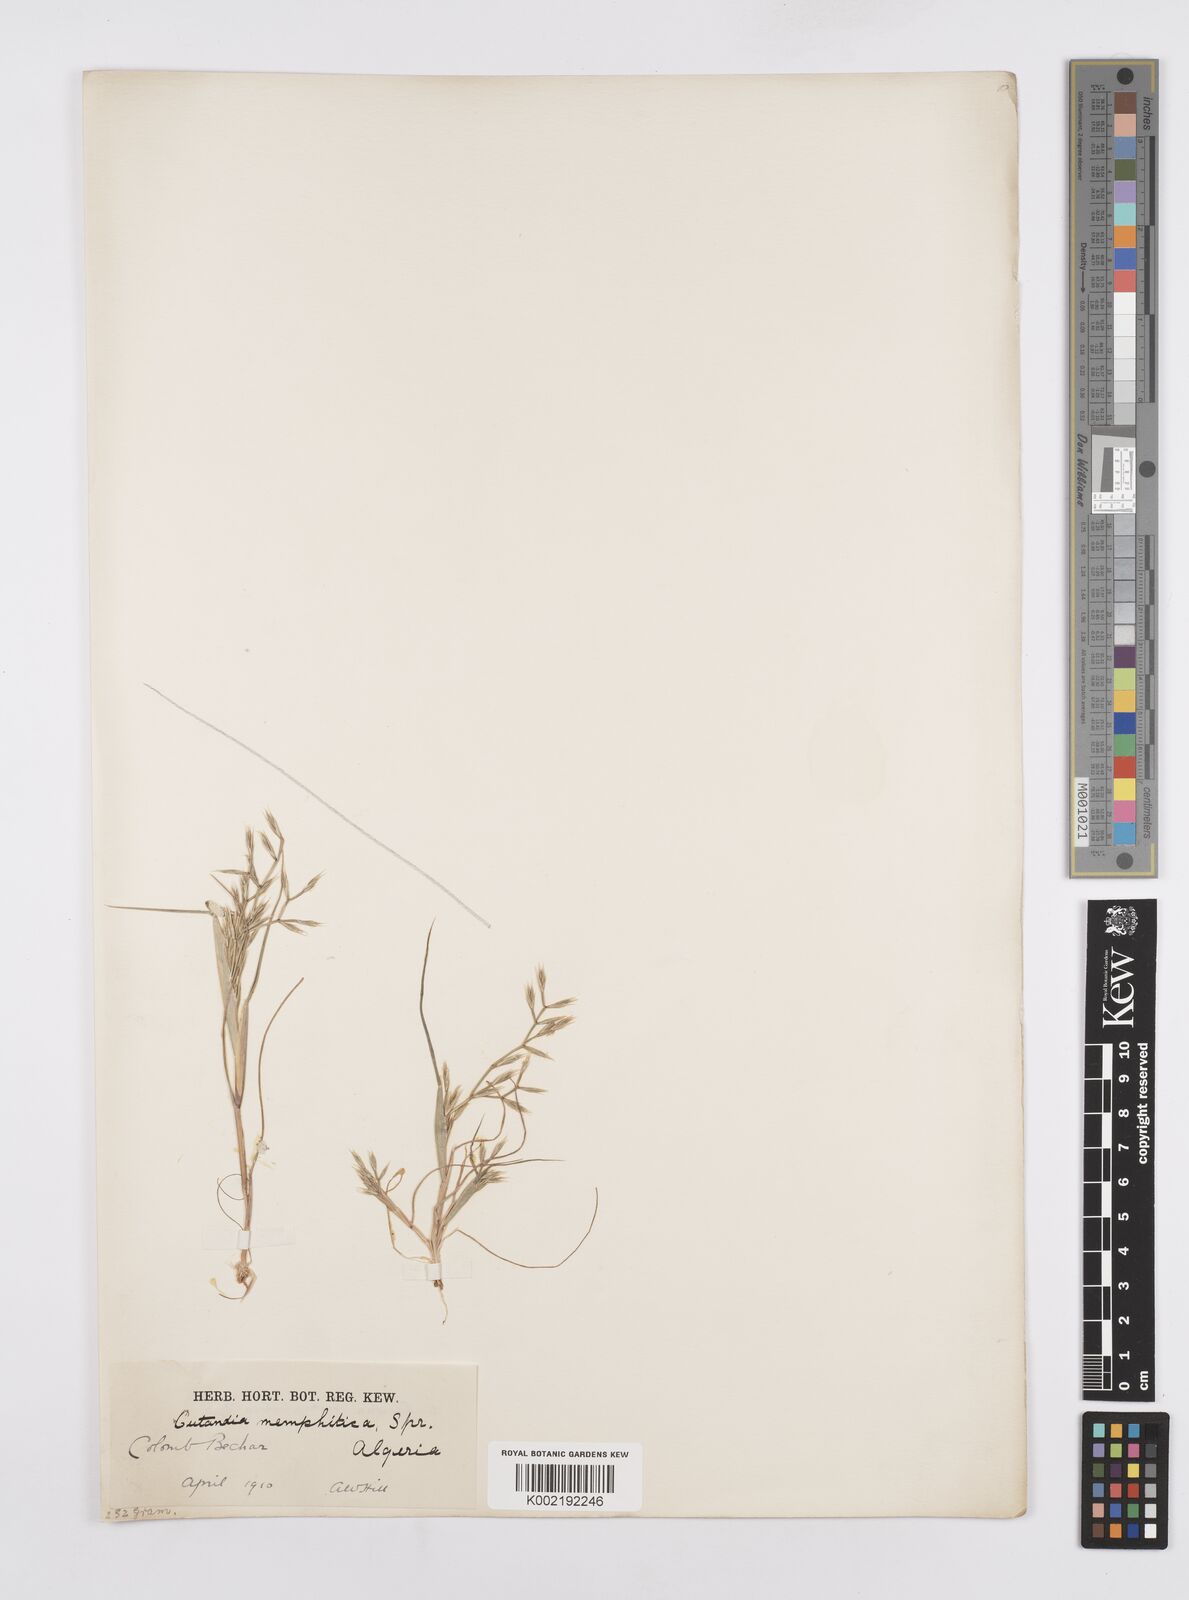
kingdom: Plantae
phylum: Tracheophyta
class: Liliopsida
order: Poales
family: Poaceae
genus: Cutandia
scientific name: Cutandia memphitica
